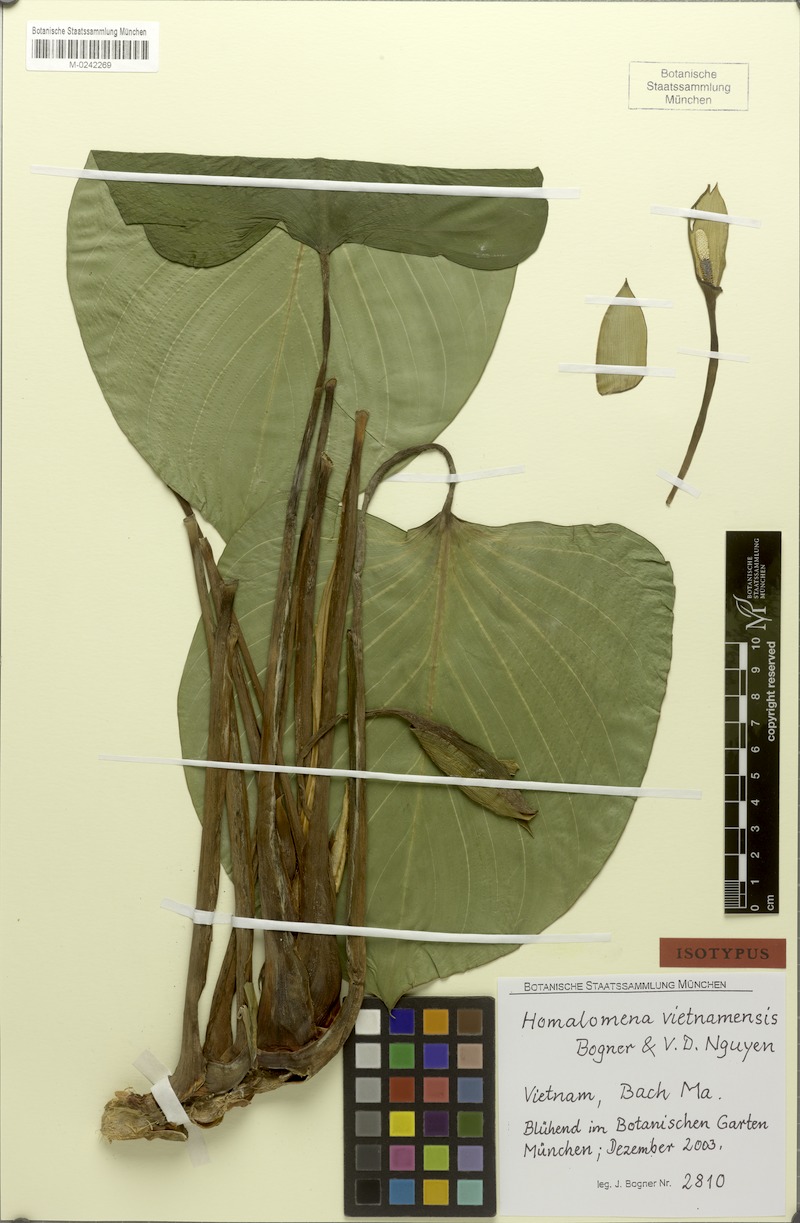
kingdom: Plantae
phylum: Tracheophyta
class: Liliopsida
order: Alismatales
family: Araceae
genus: Homalomena
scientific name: Homalomena vietnamensis
